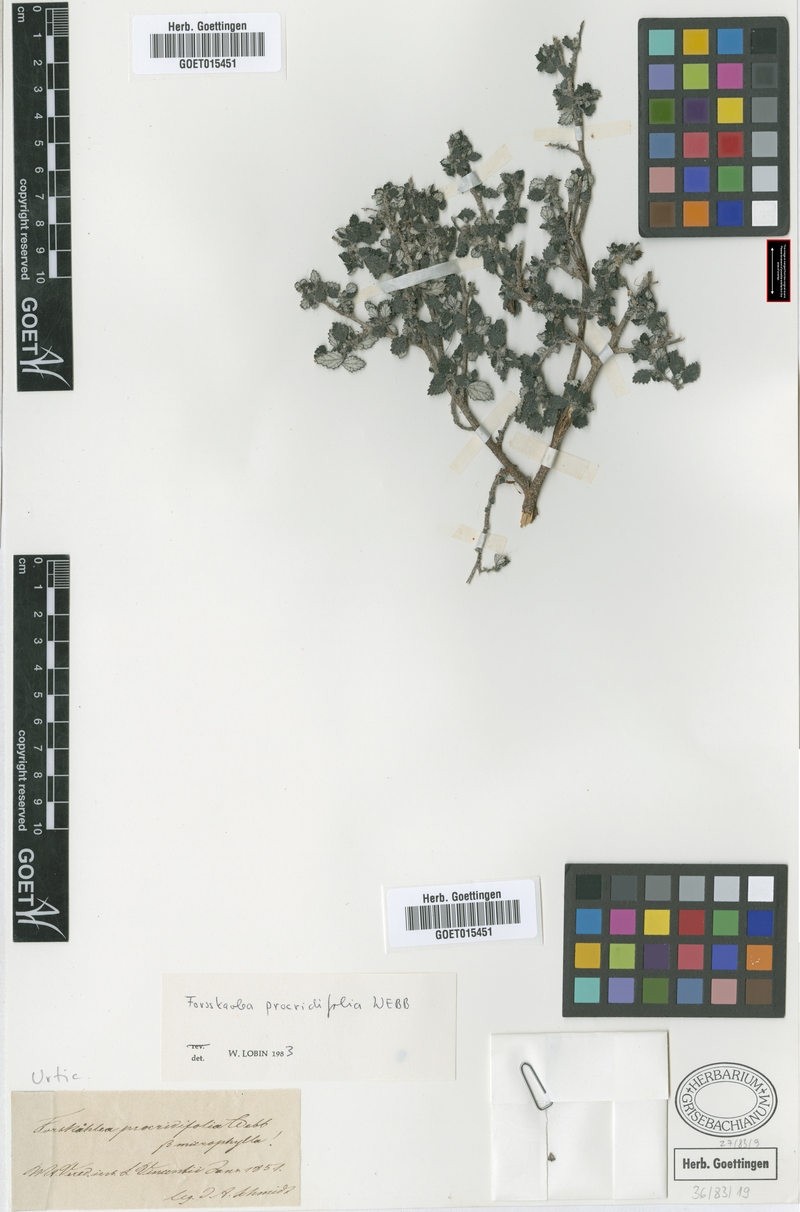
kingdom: Plantae
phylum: Tracheophyta
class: Magnoliopsida
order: Rosales
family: Urticaceae
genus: Forsskaolea
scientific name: Forsskaolea procridifolia
